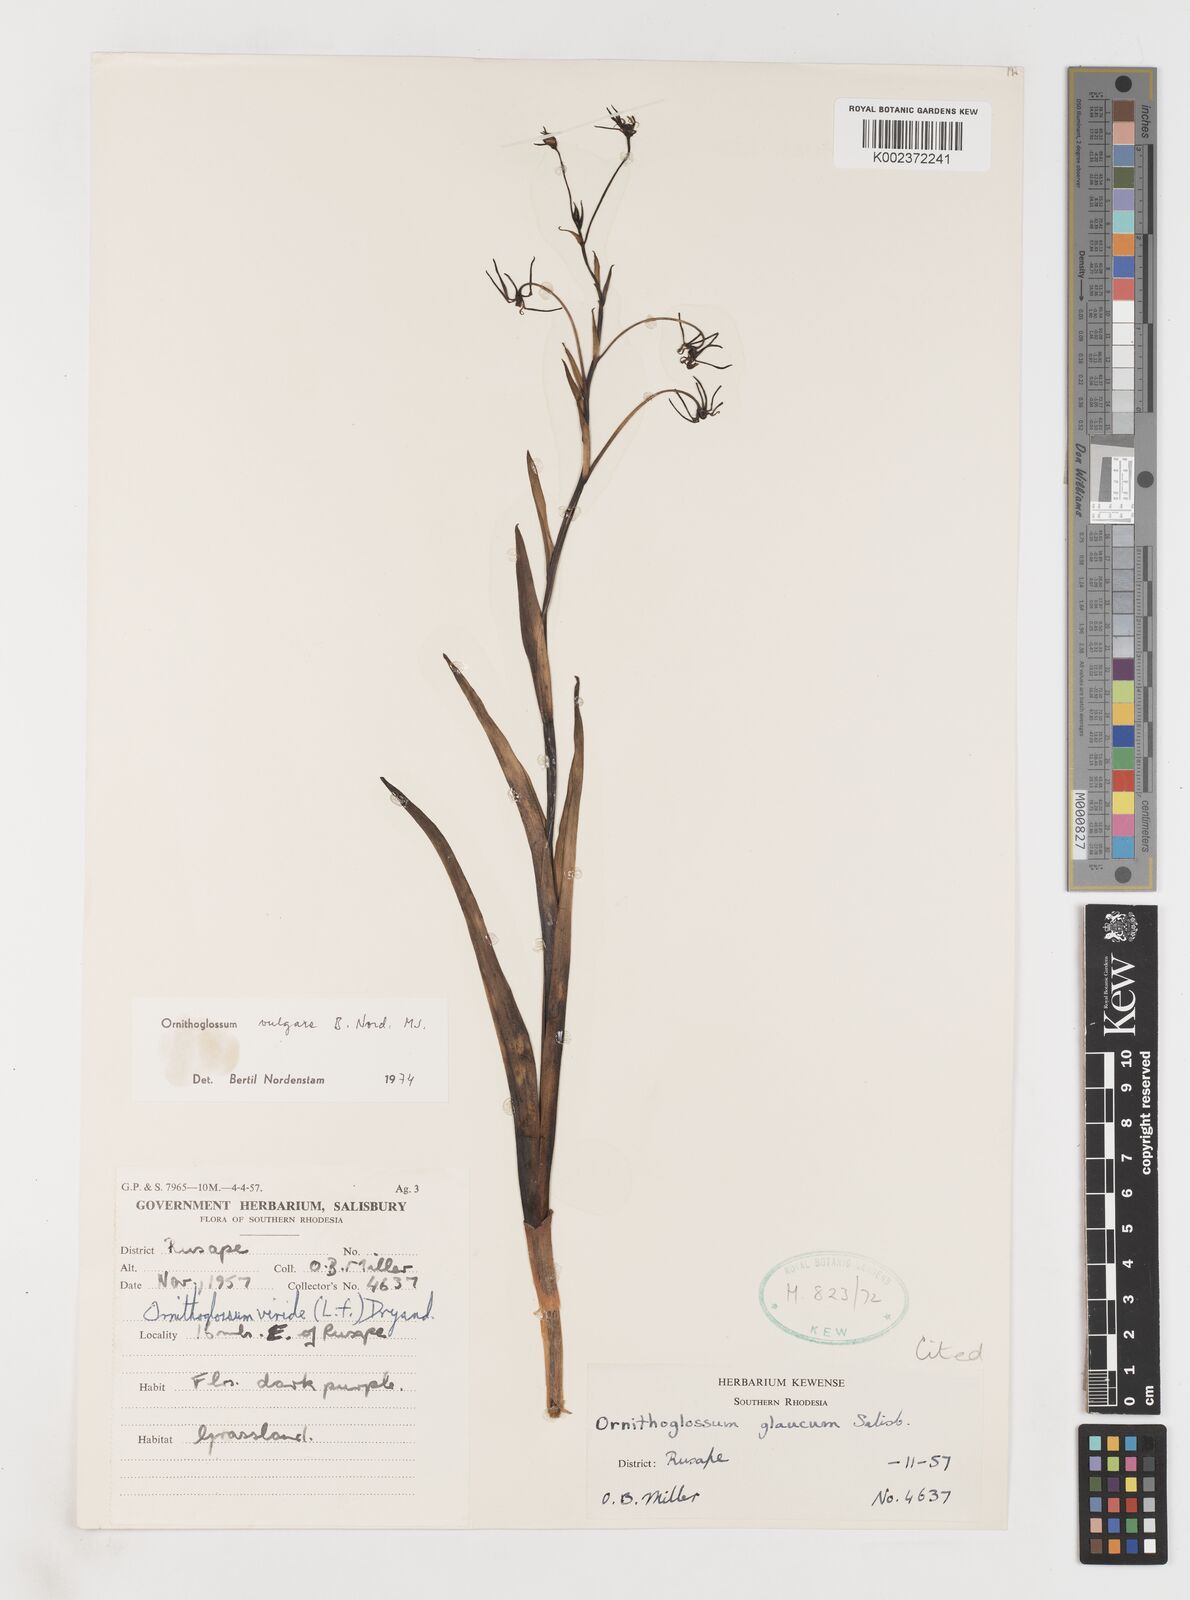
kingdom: Plantae
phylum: Tracheophyta
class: Liliopsida
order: Liliales
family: Colchicaceae
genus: Ornithoglossum
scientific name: Ornithoglossum vulgare
